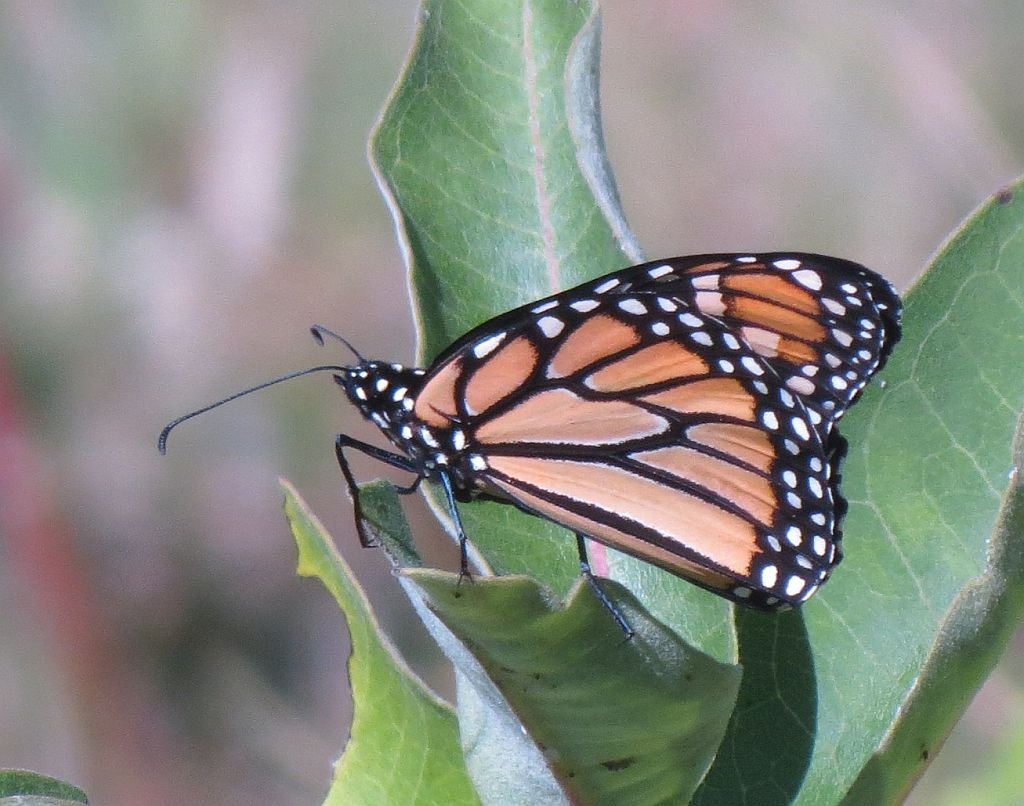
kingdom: Animalia
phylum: Arthropoda
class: Insecta
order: Lepidoptera
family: Nymphalidae
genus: Danaus
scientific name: Danaus plexippus
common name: Monarch
